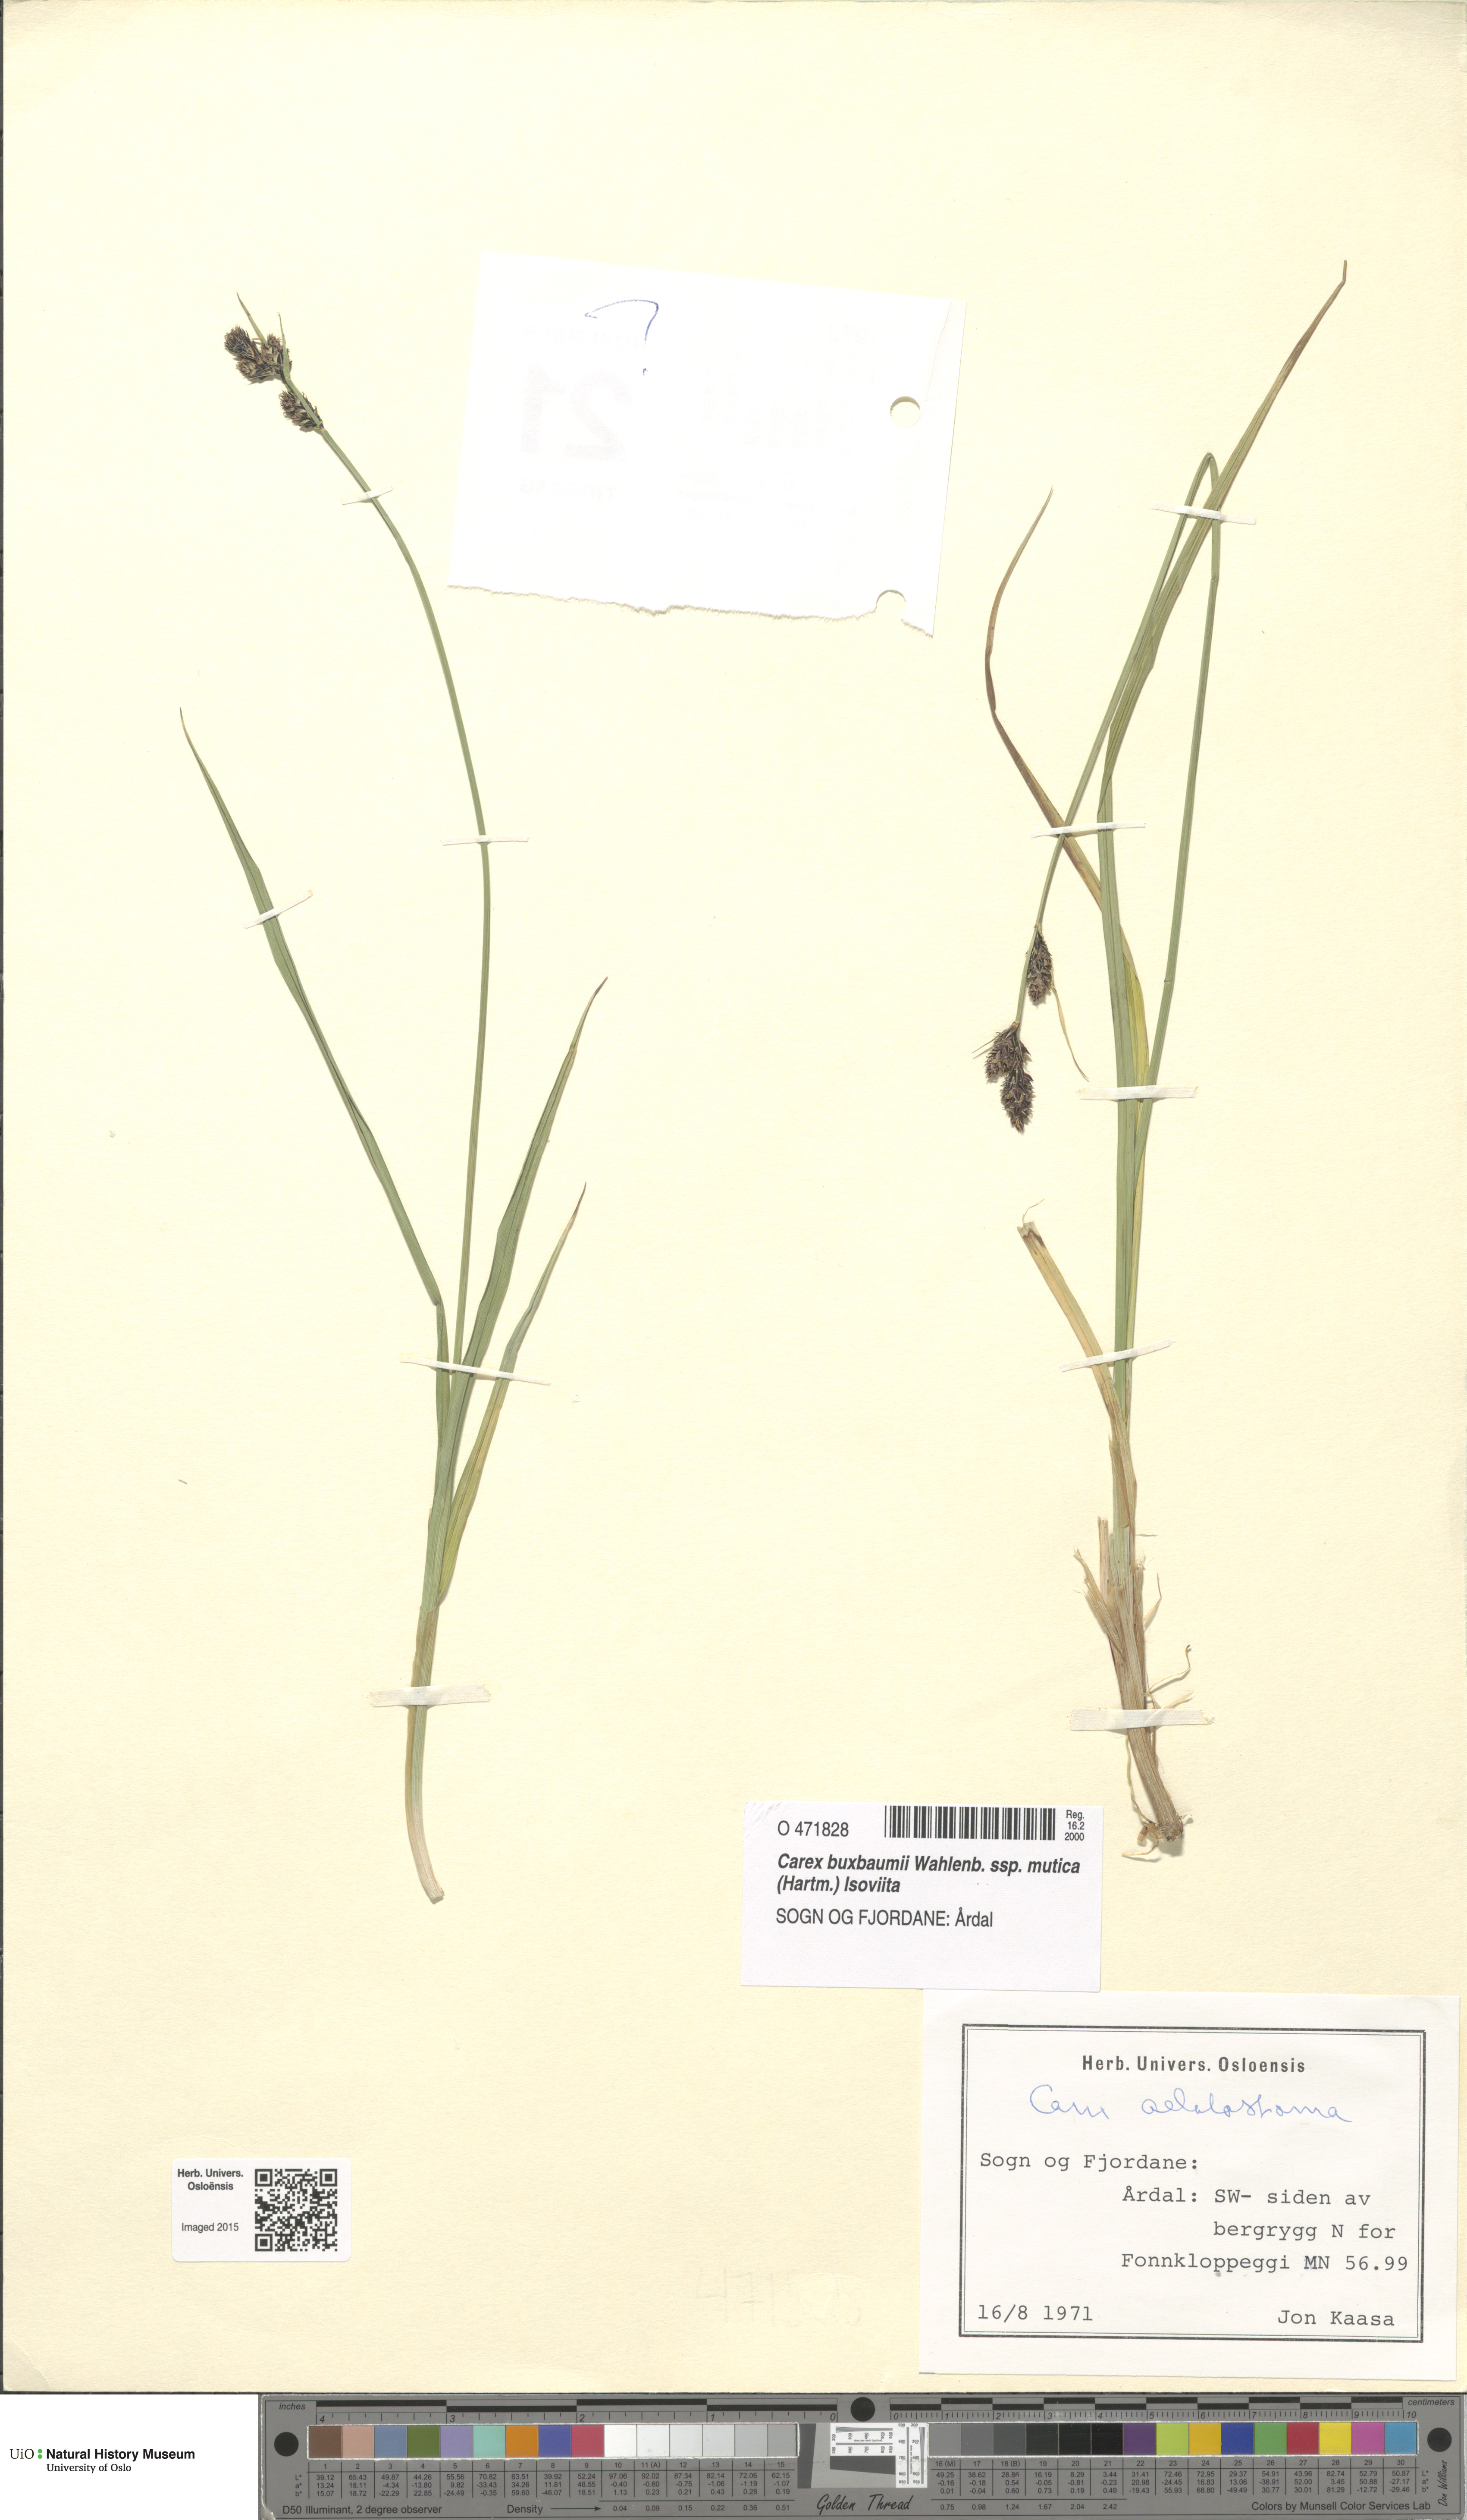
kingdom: Plantae
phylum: Tracheophyta
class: Liliopsida
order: Poales
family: Cyperaceae
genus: Carex
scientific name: Carex adelostoma
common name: Circumpolar sedge
